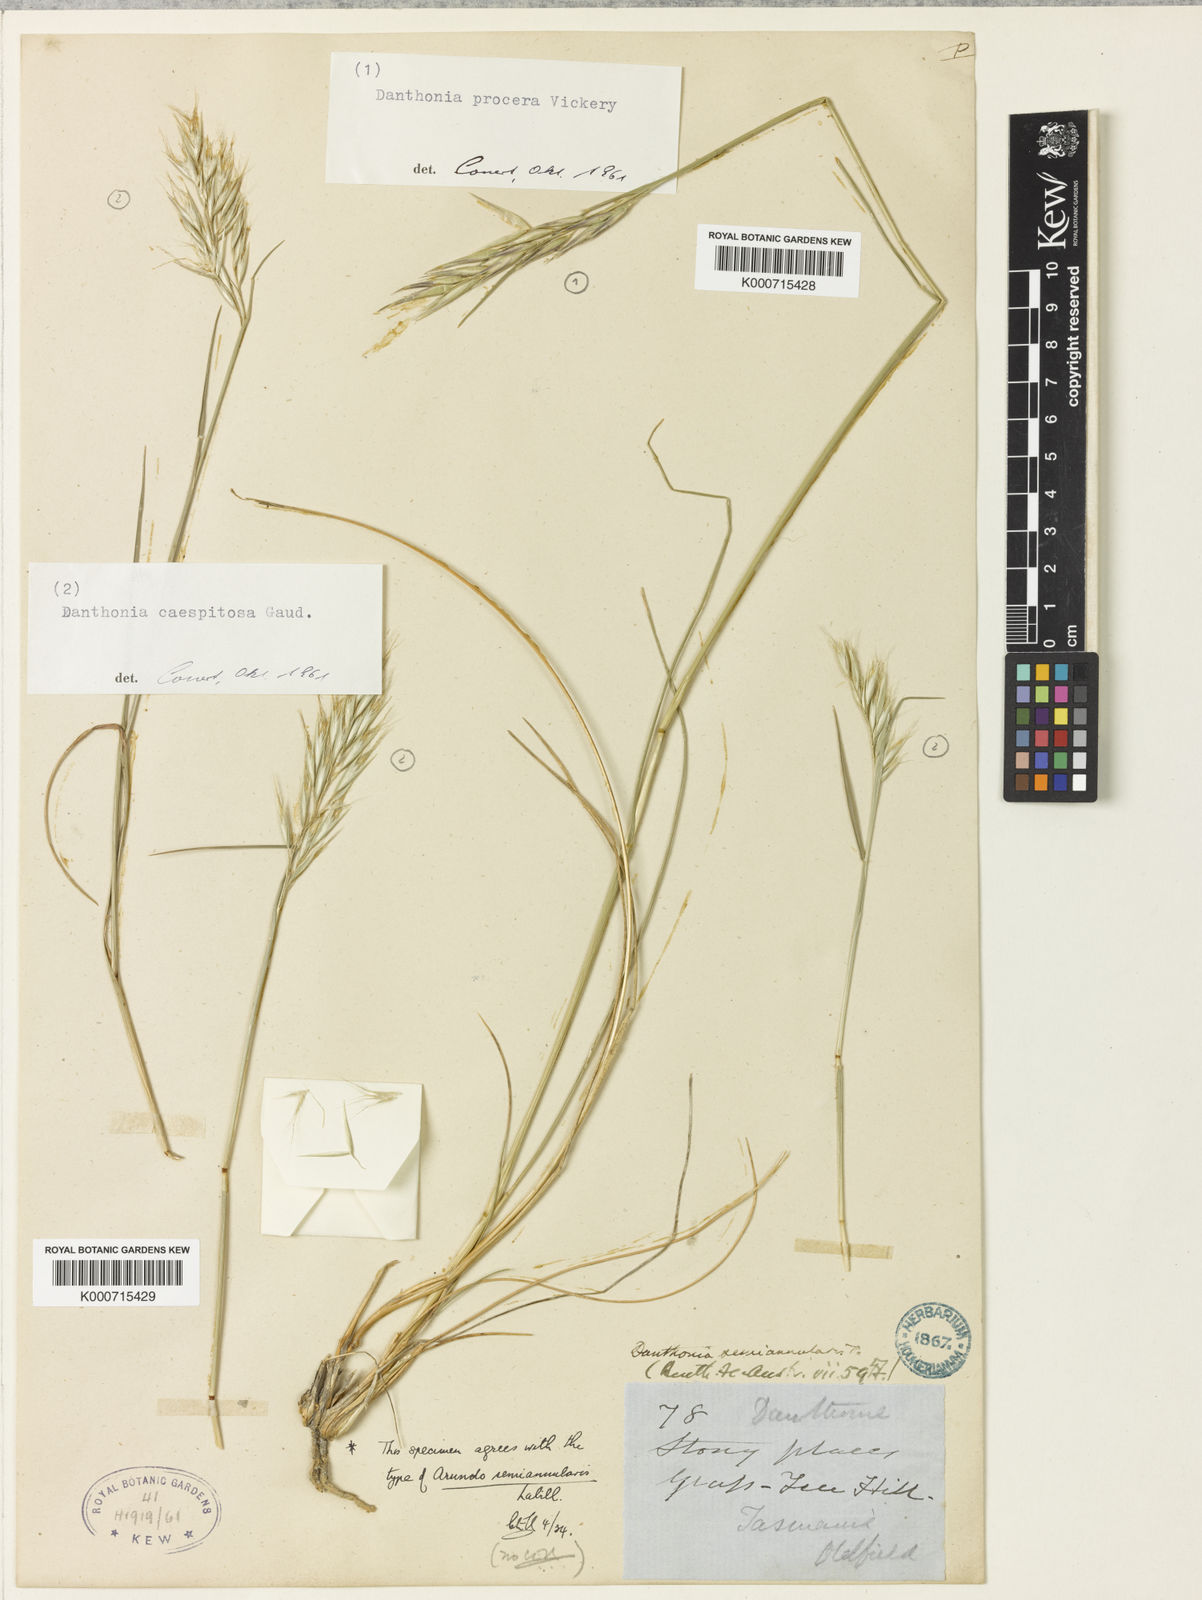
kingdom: Plantae
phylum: Tracheophyta
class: Liliopsida
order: Poales
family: Poaceae
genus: Rytidosperma
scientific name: Rytidosperma semiannulare
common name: Tasmanian wallaby grass
